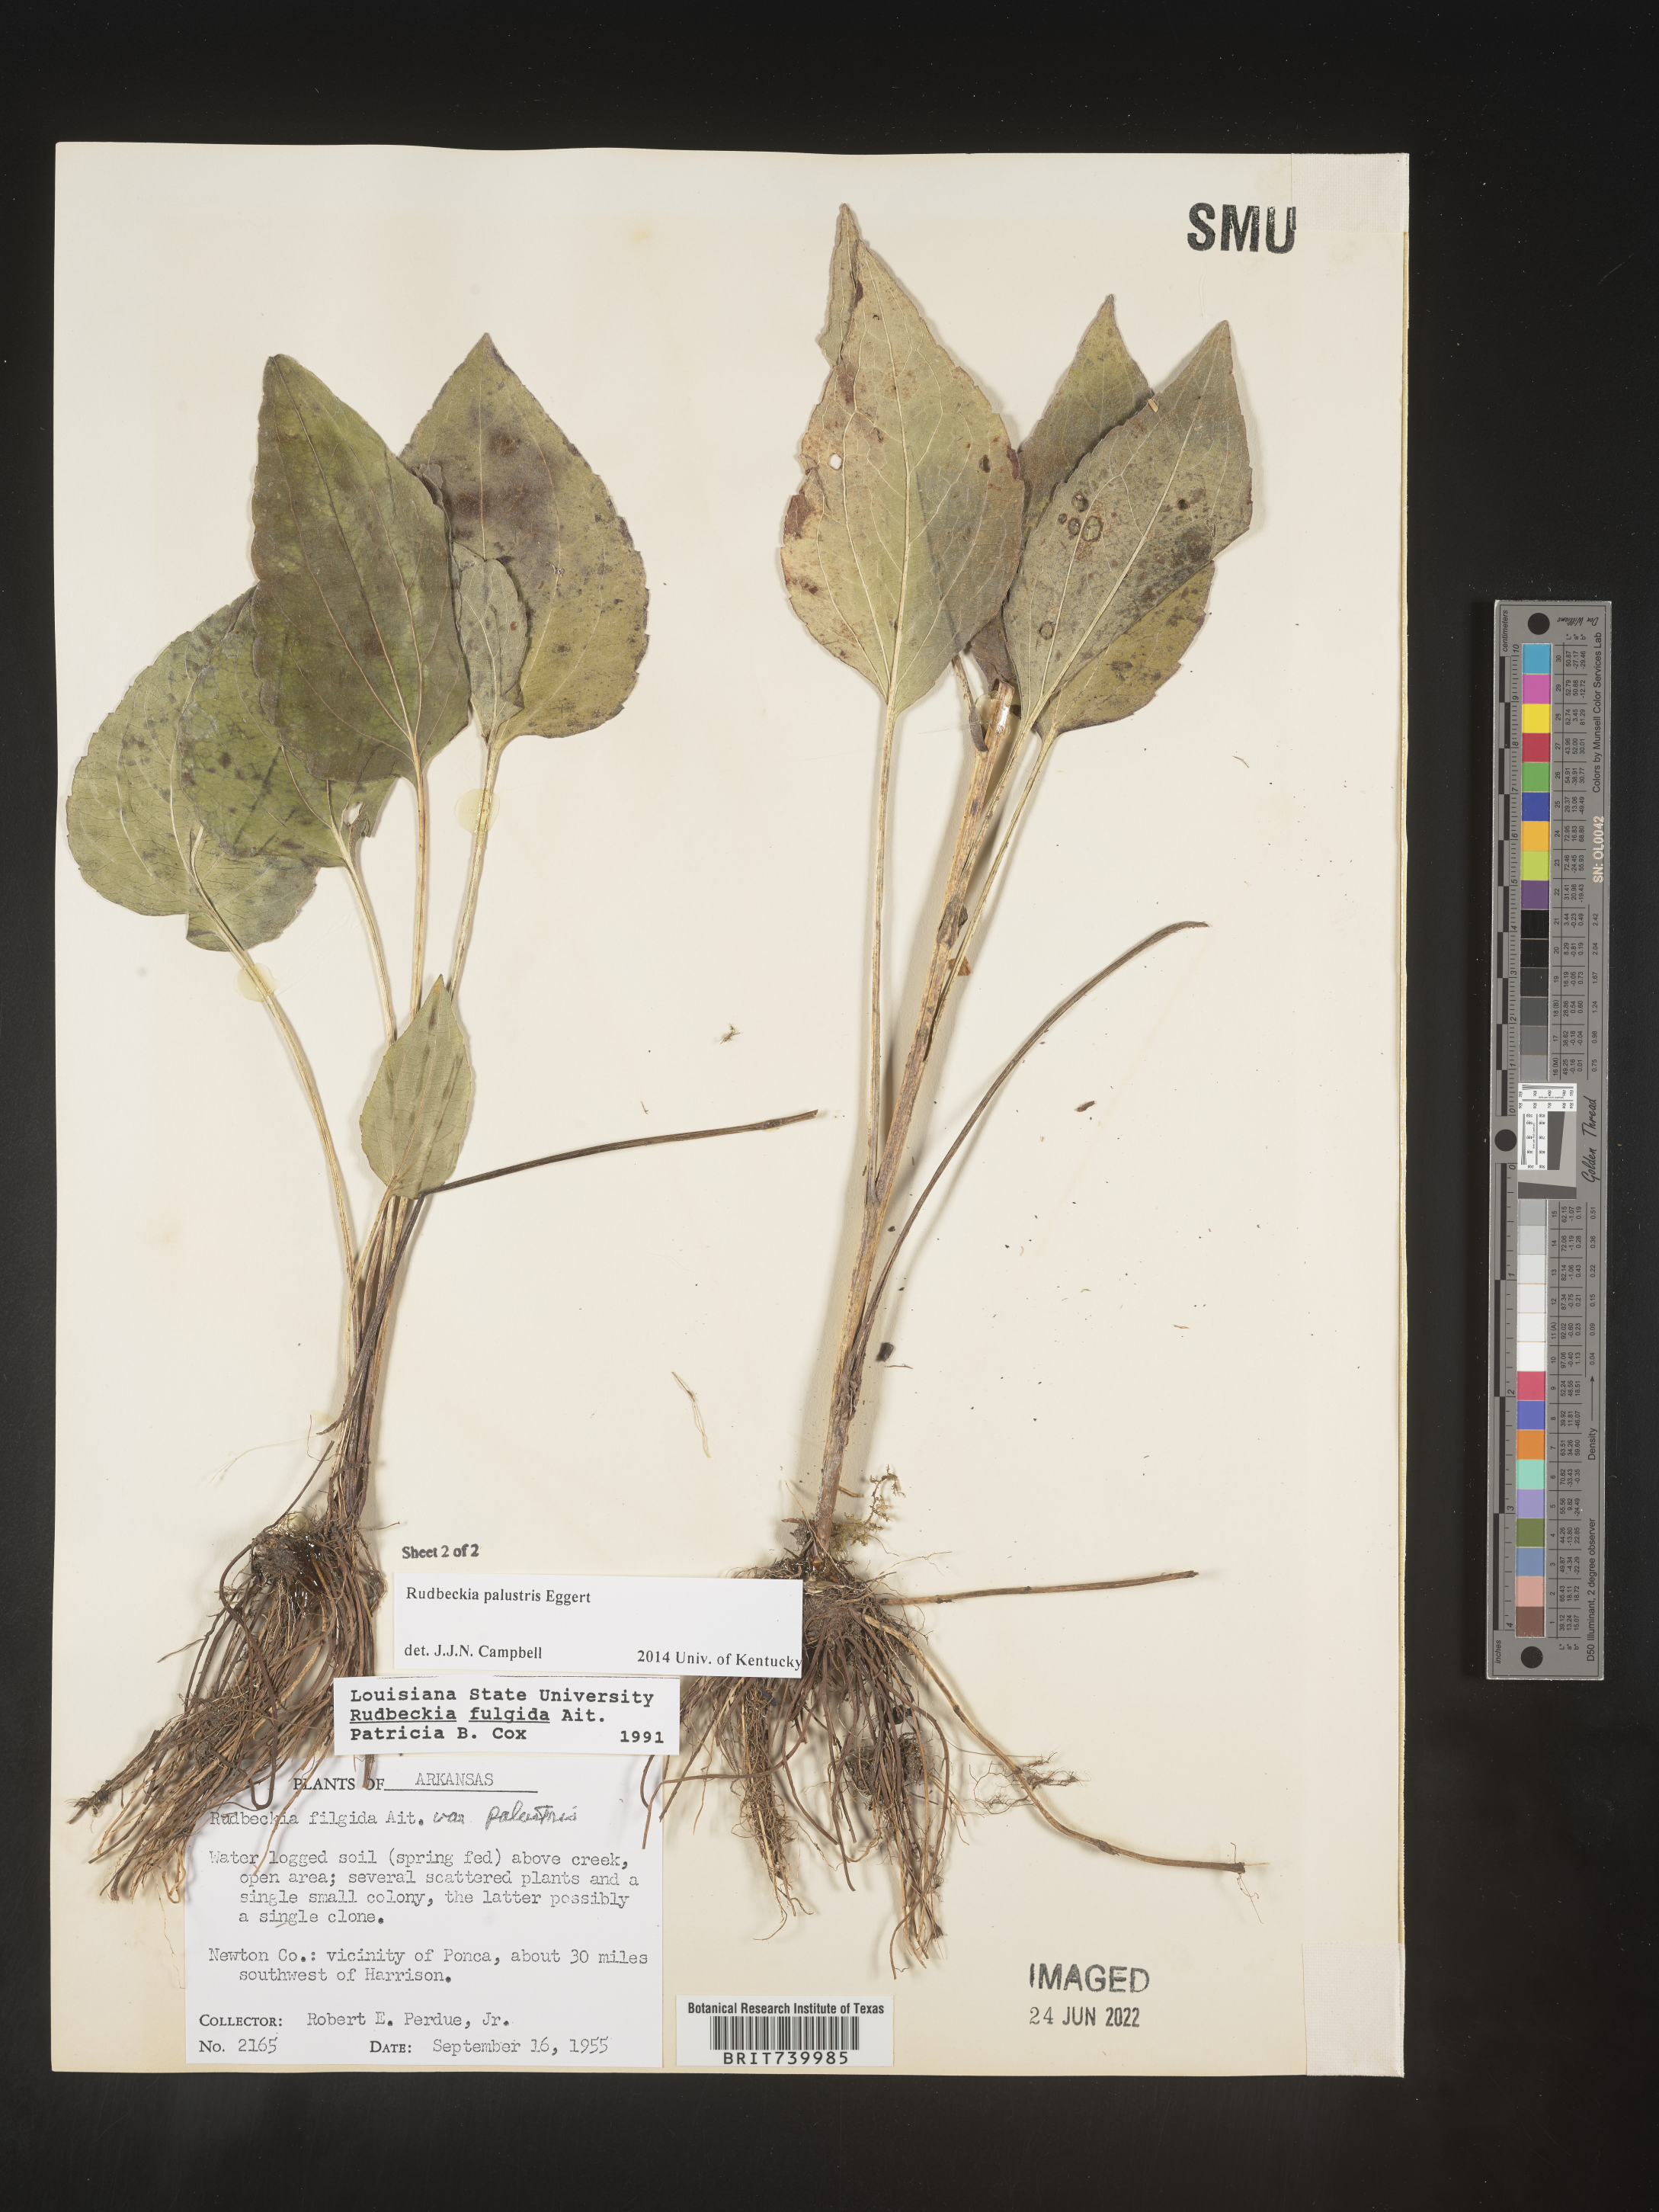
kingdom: Plantae
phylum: Tracheophyta
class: Magnoliopsida
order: Asterales
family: Asteraceae
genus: Rudbeckia
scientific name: Rudbeckia fulgida
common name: Perennial coneflower
